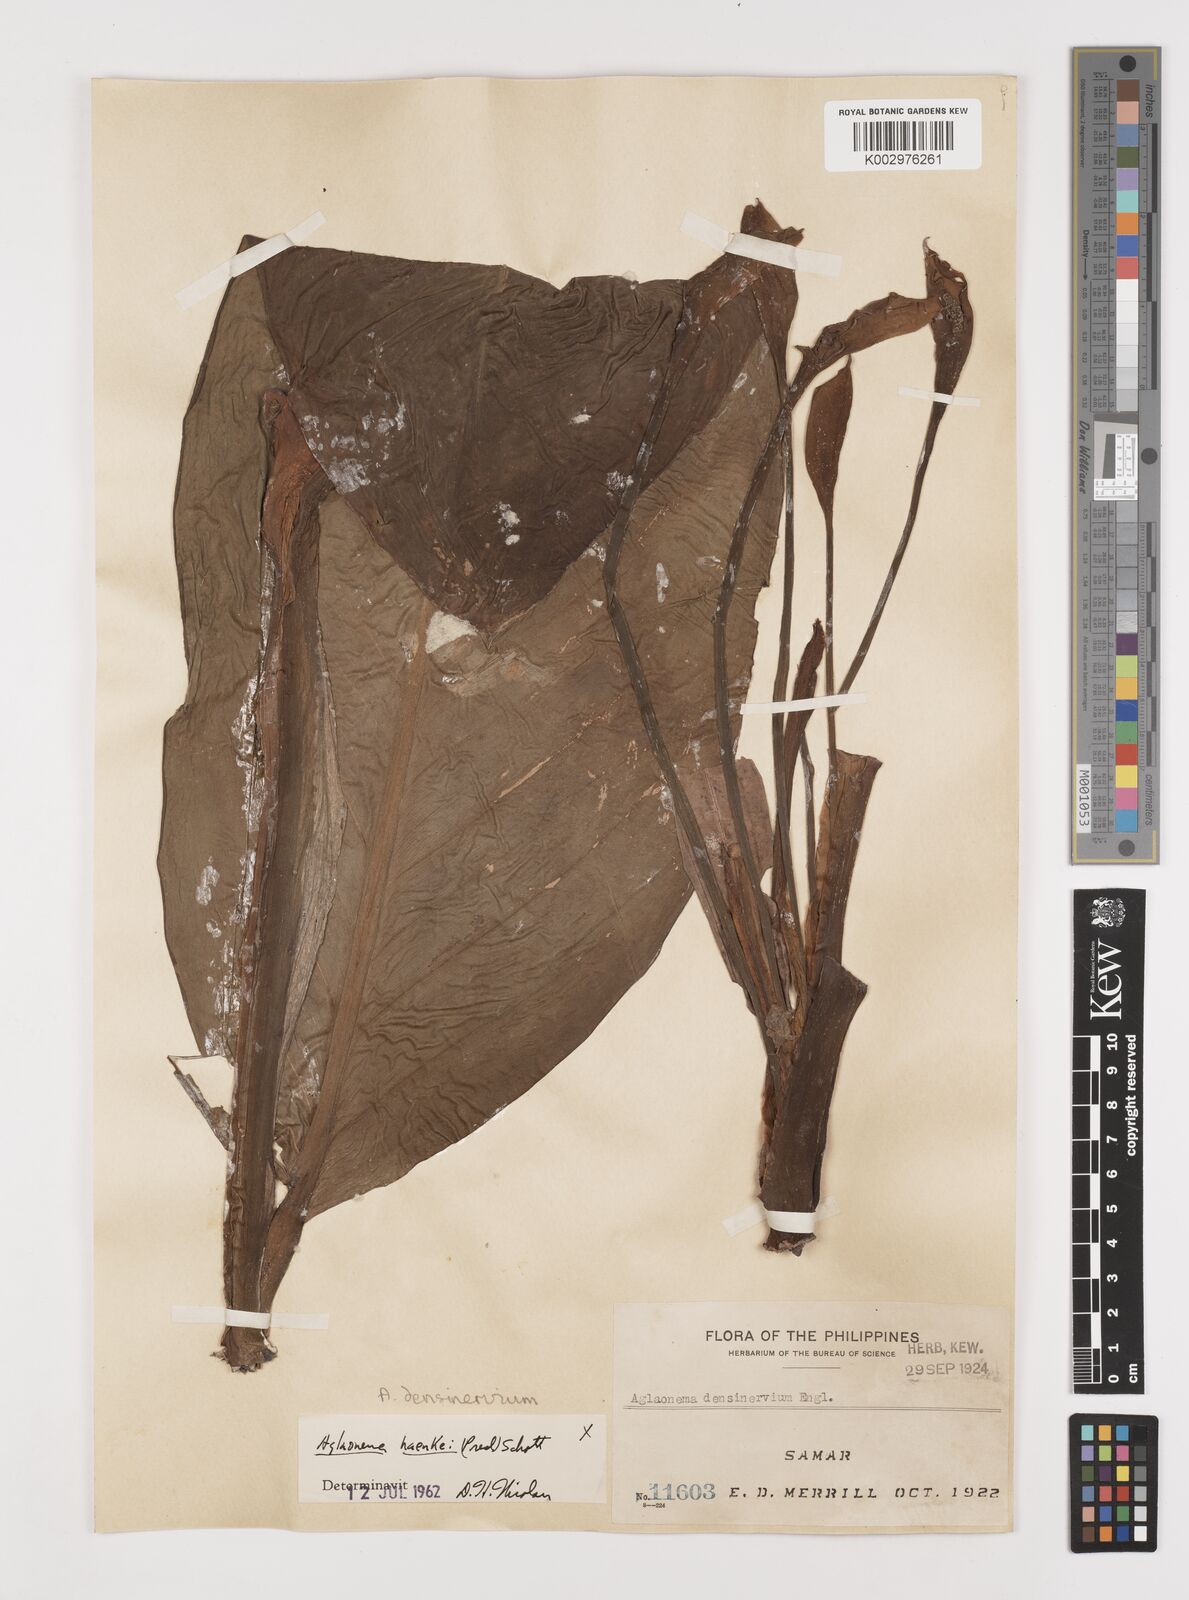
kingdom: Plantae
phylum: Tracheophyta
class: Liliopsida
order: Alismatales
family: Araceae
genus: Aglaonema
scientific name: Aglaonema densinervium
